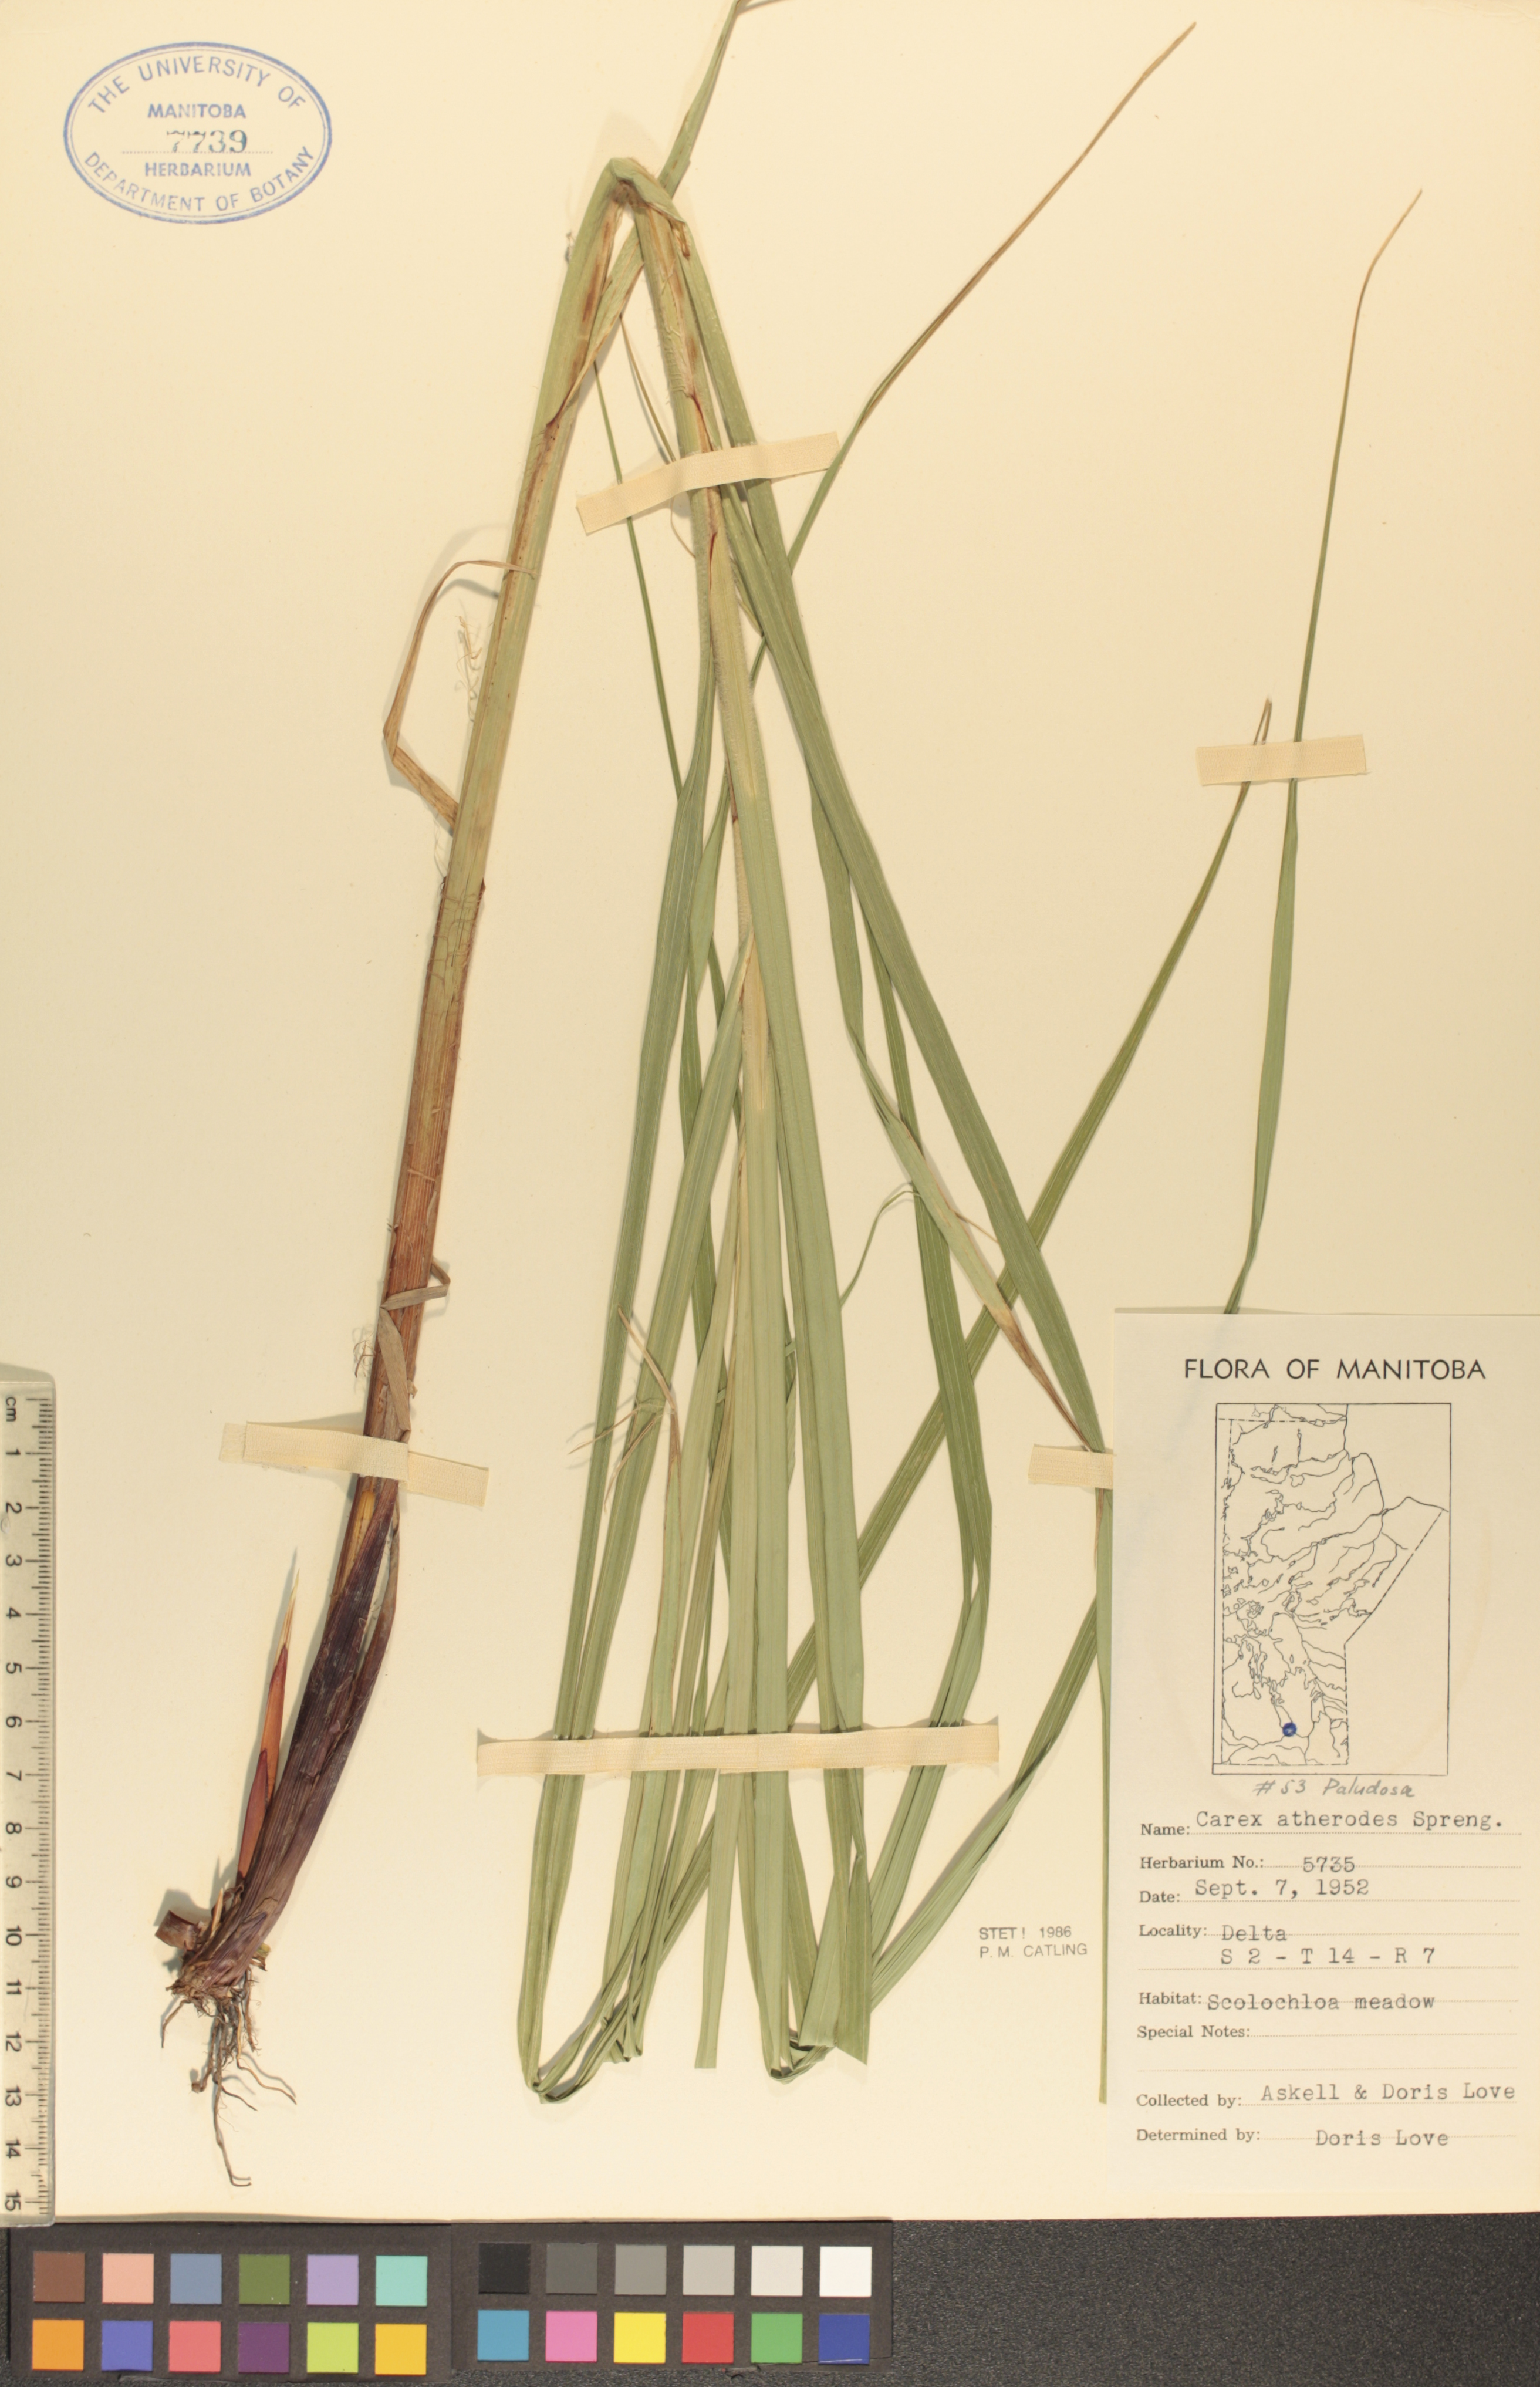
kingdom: Plantae
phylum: Tracheophyta
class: Liliopsida
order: Poales
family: Cyperaceae
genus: Carex
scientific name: Carex atherodes
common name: Wheat sedge
